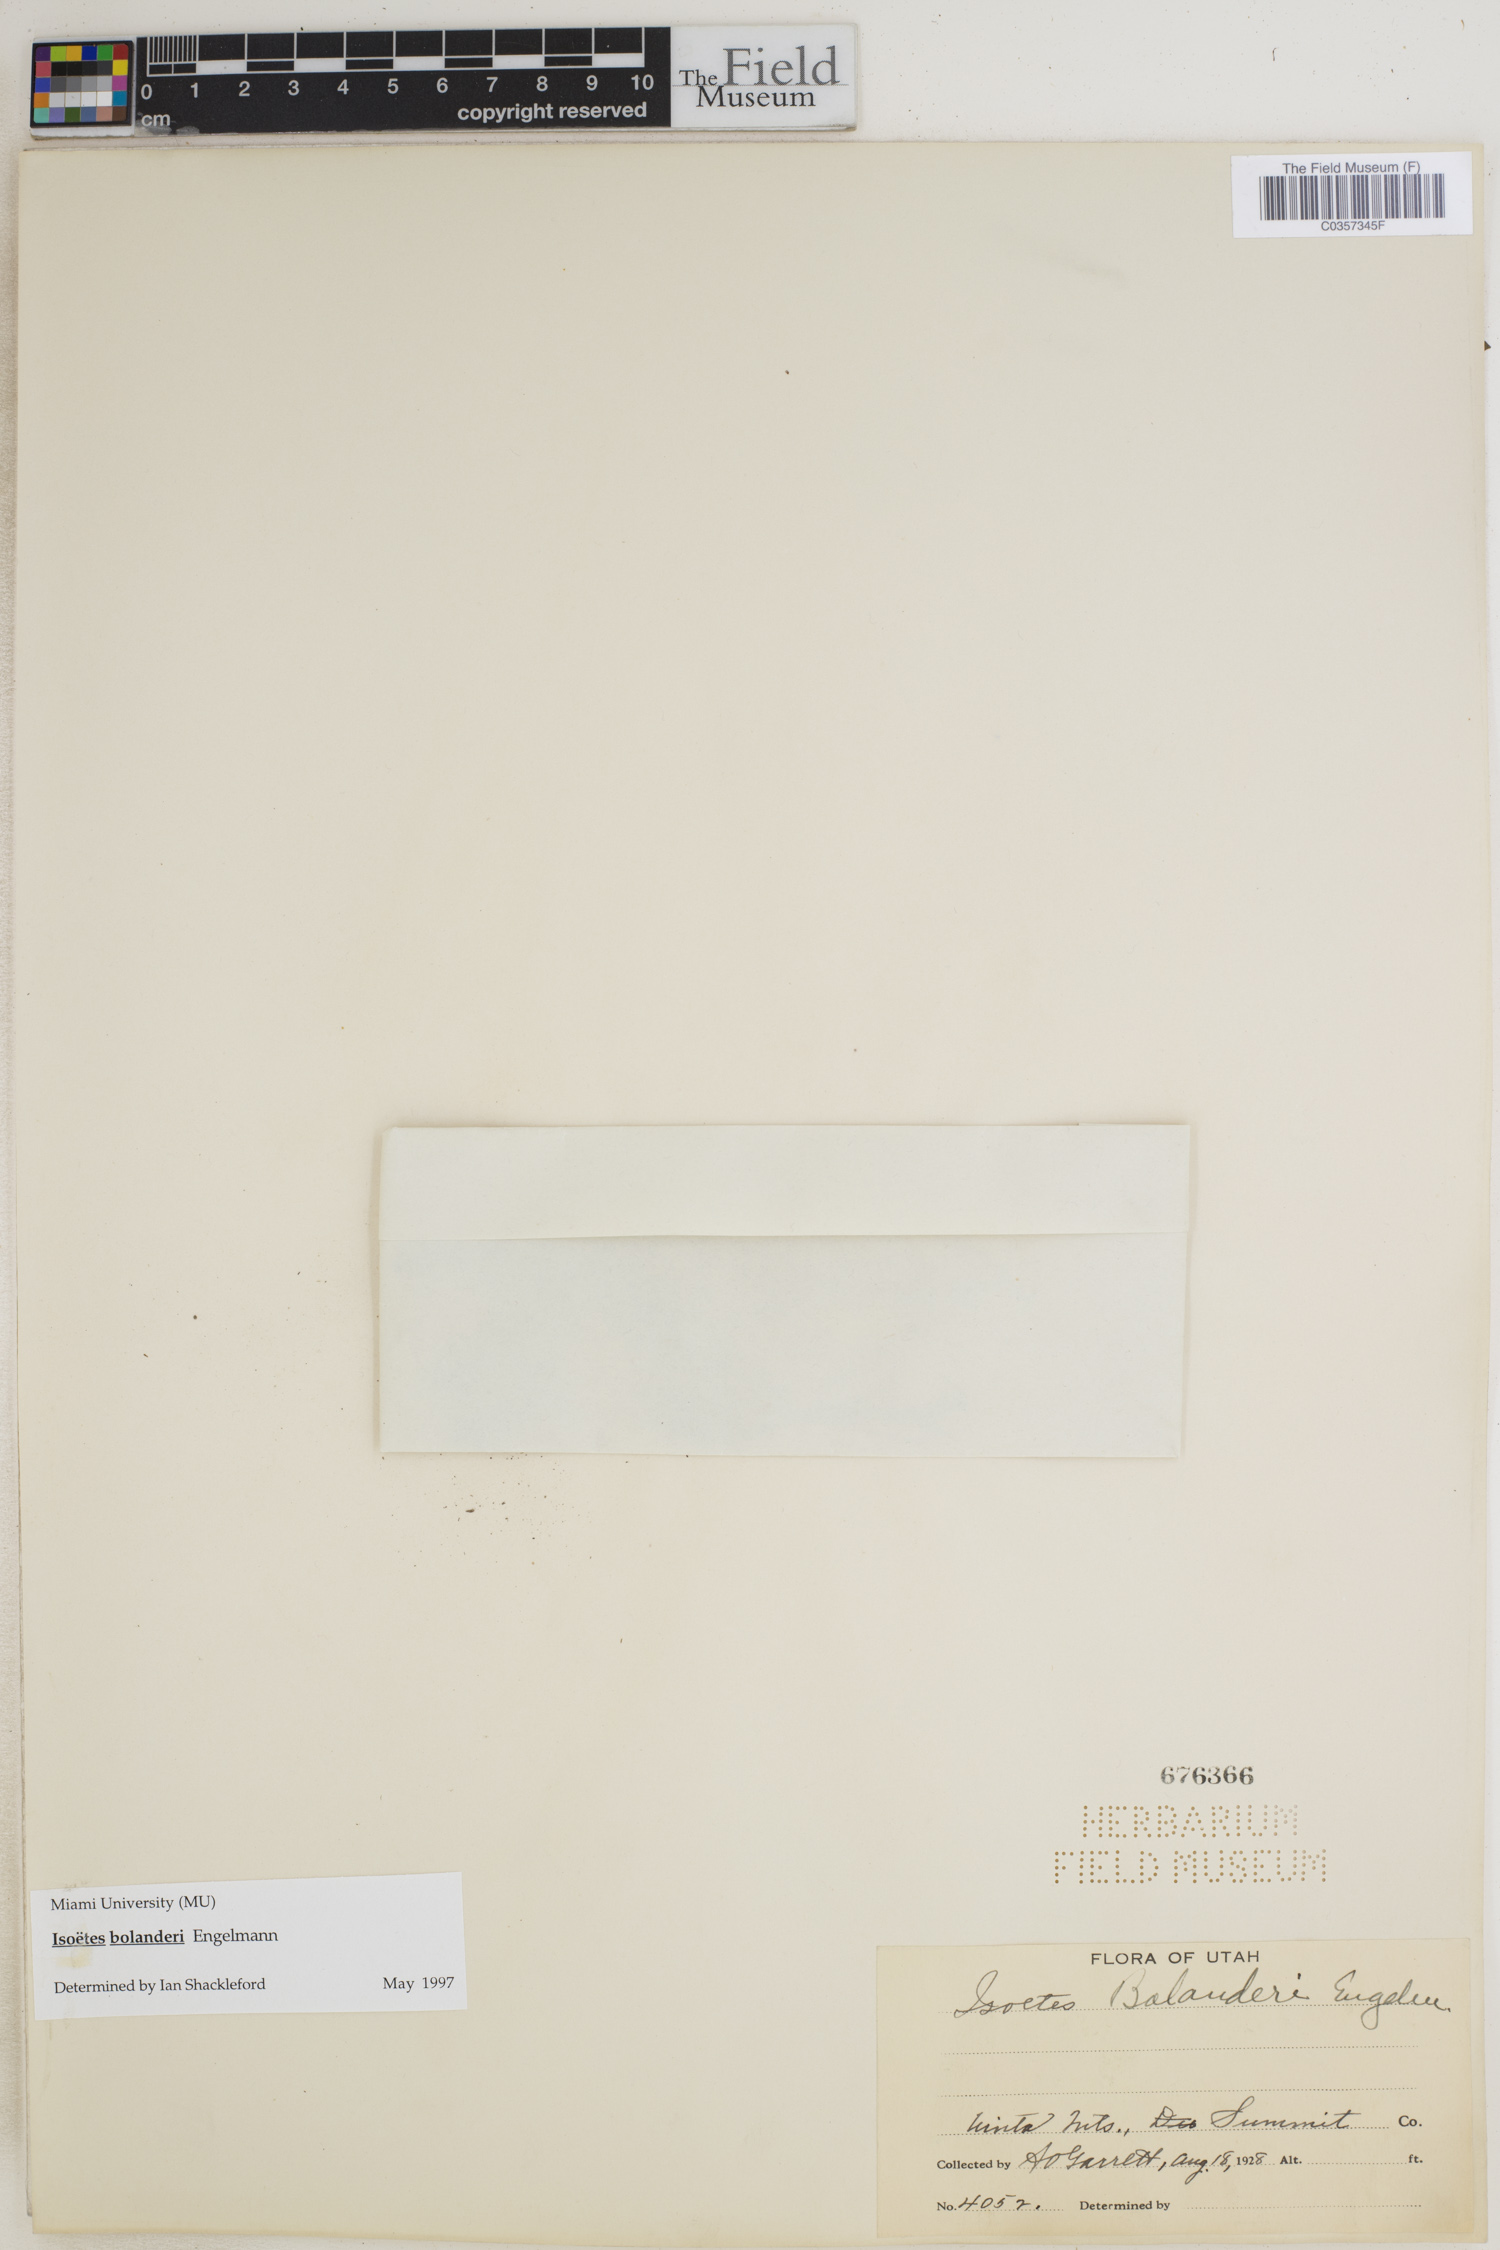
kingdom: Plantae
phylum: Tracheophyta
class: Lycopodiopsida
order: Isoetales
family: Isoetaceae
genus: Isoetes
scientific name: Isoetes bolanderi
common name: Bolander's quillwort
